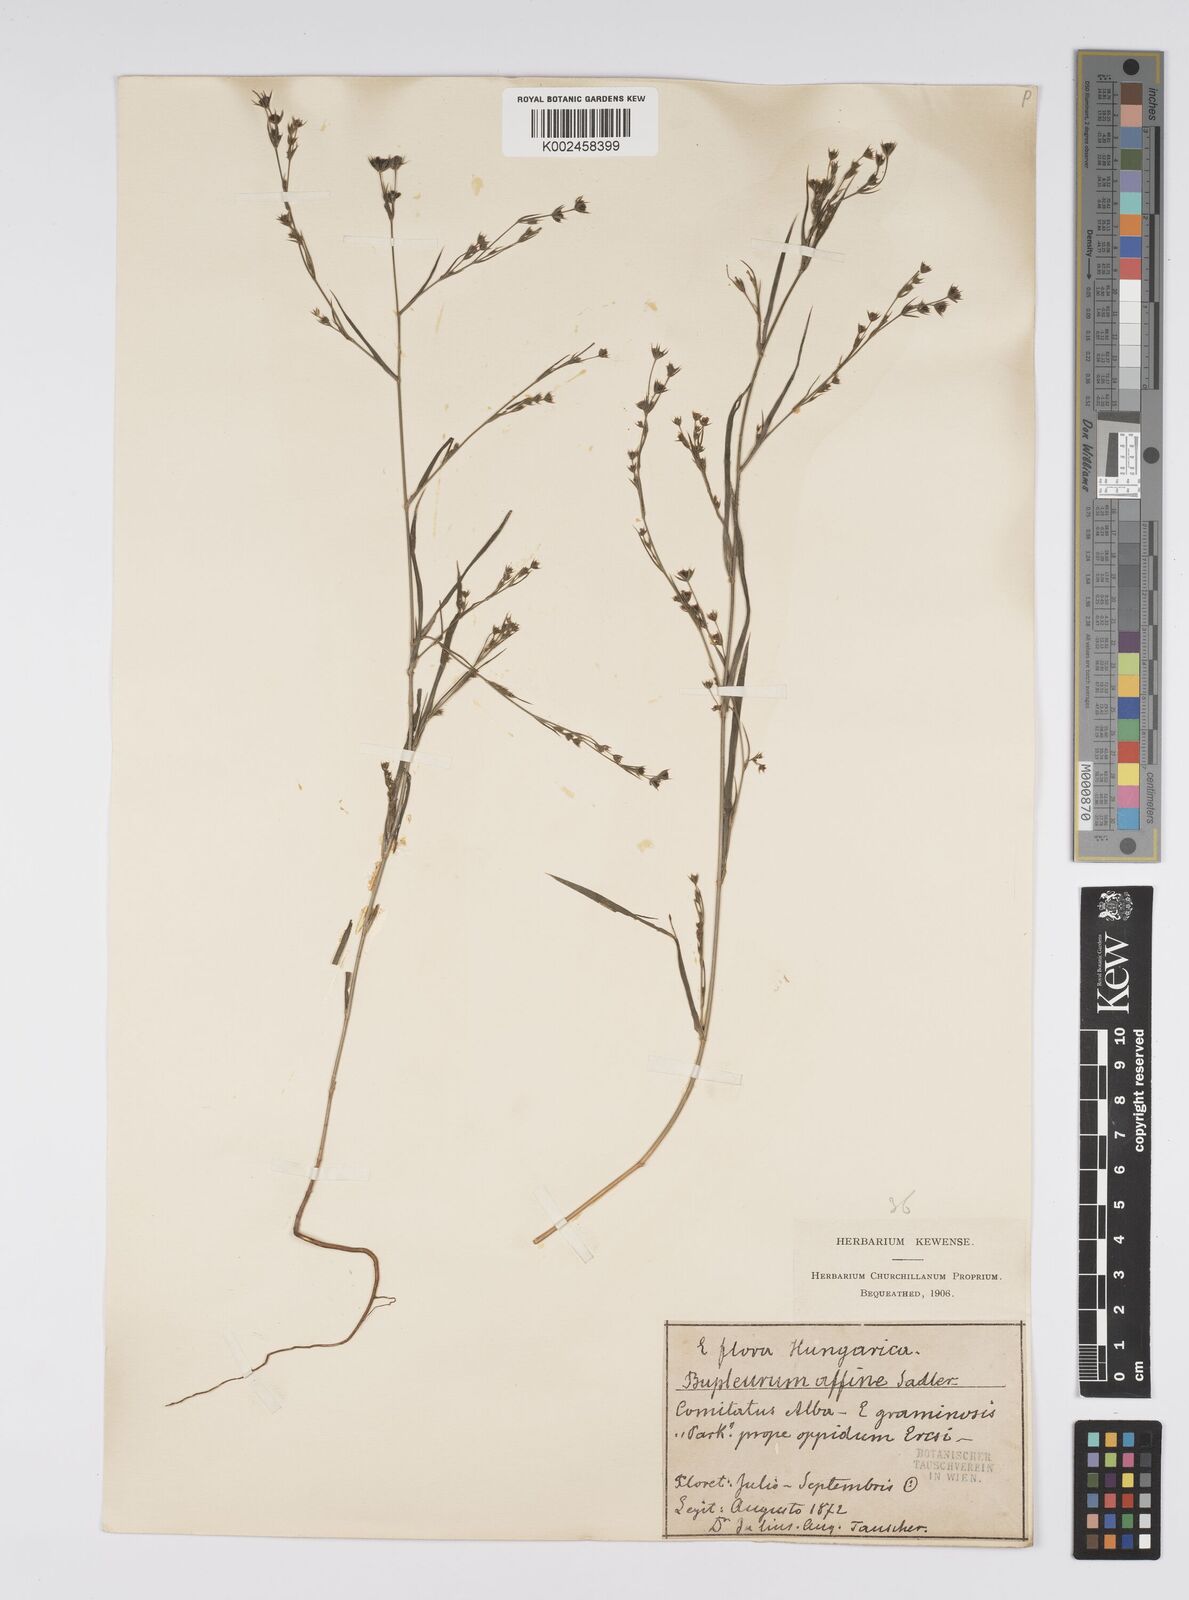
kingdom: Plantae
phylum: Tracheophyta
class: Magnoliopsida
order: Apiales
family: Apiaceae
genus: Bupleurum
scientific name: Bupleurum affine
